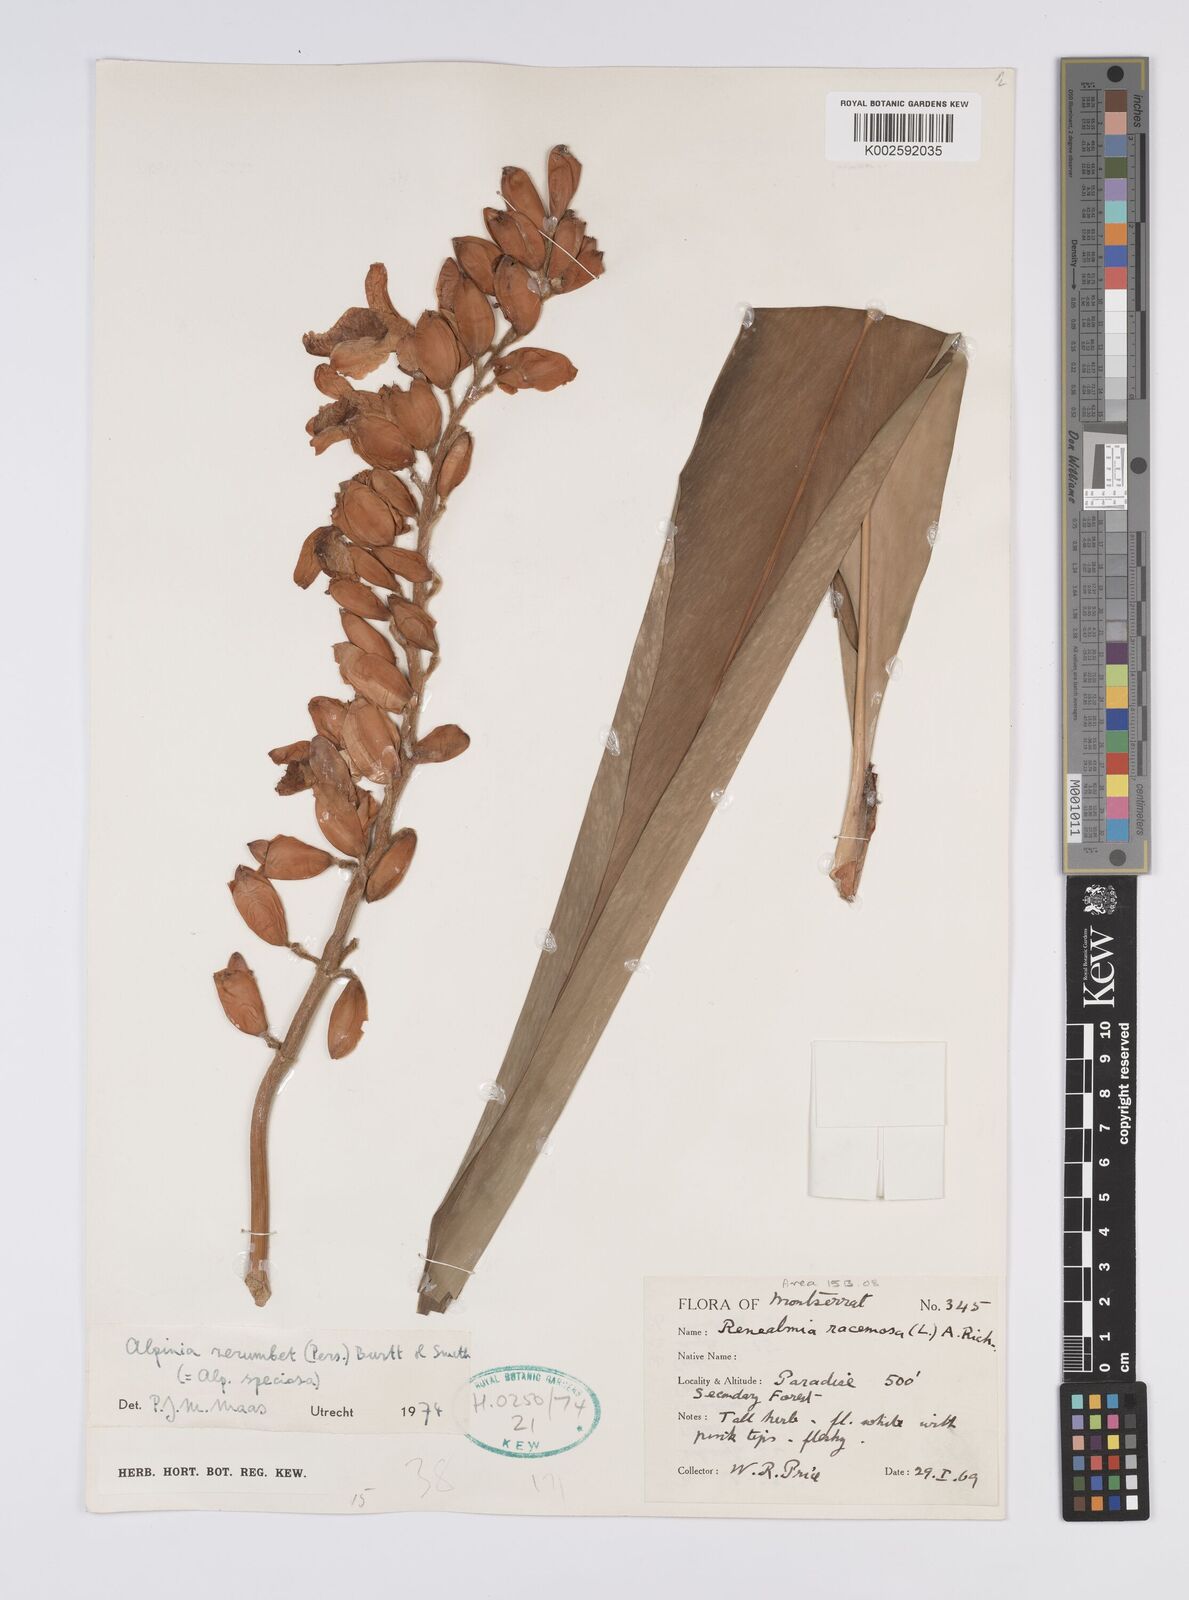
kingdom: Plantae
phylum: Tracheophyta
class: Liliopsida
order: Zingiberales
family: Zingiberaceae
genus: Alpinia
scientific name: Alpinia zerumbet
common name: Shellplant
